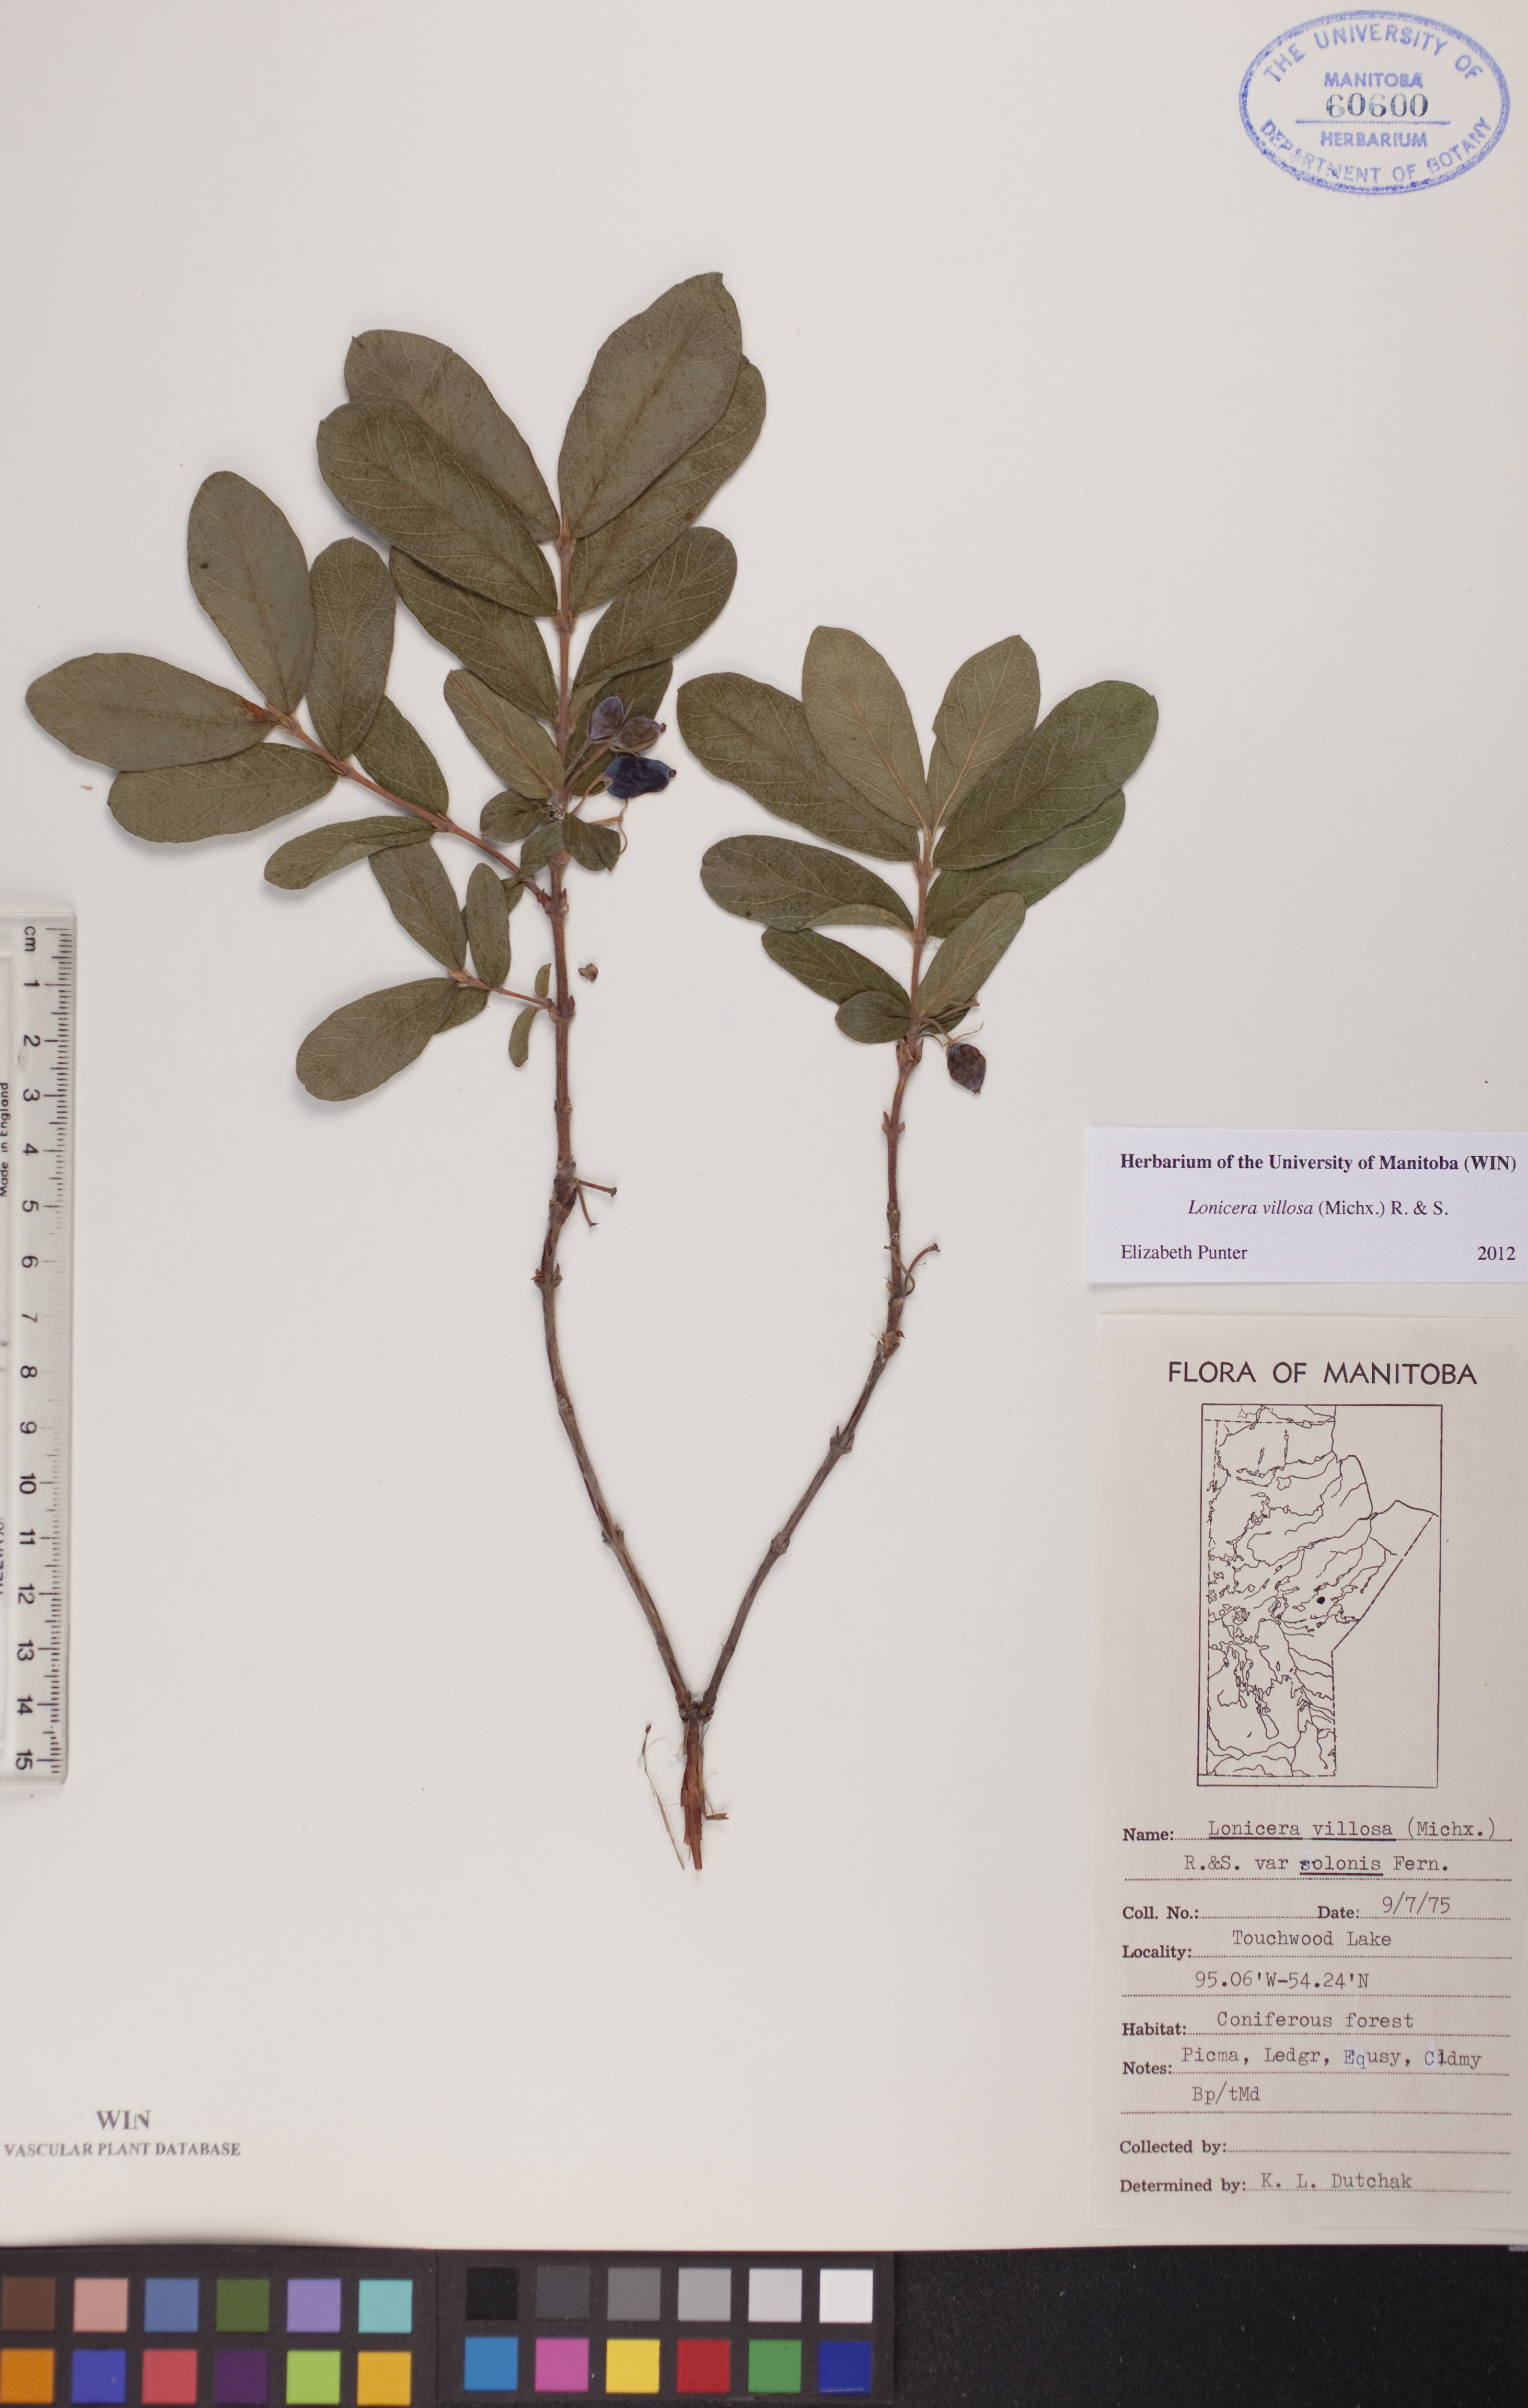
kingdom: Plantae
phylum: Tracheophyta
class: Magnoliopsida
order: Dipsacales
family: Caprifoliaceae
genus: Lonicera
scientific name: Lonicera villosa
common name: Mountain fly-honeysuckle
